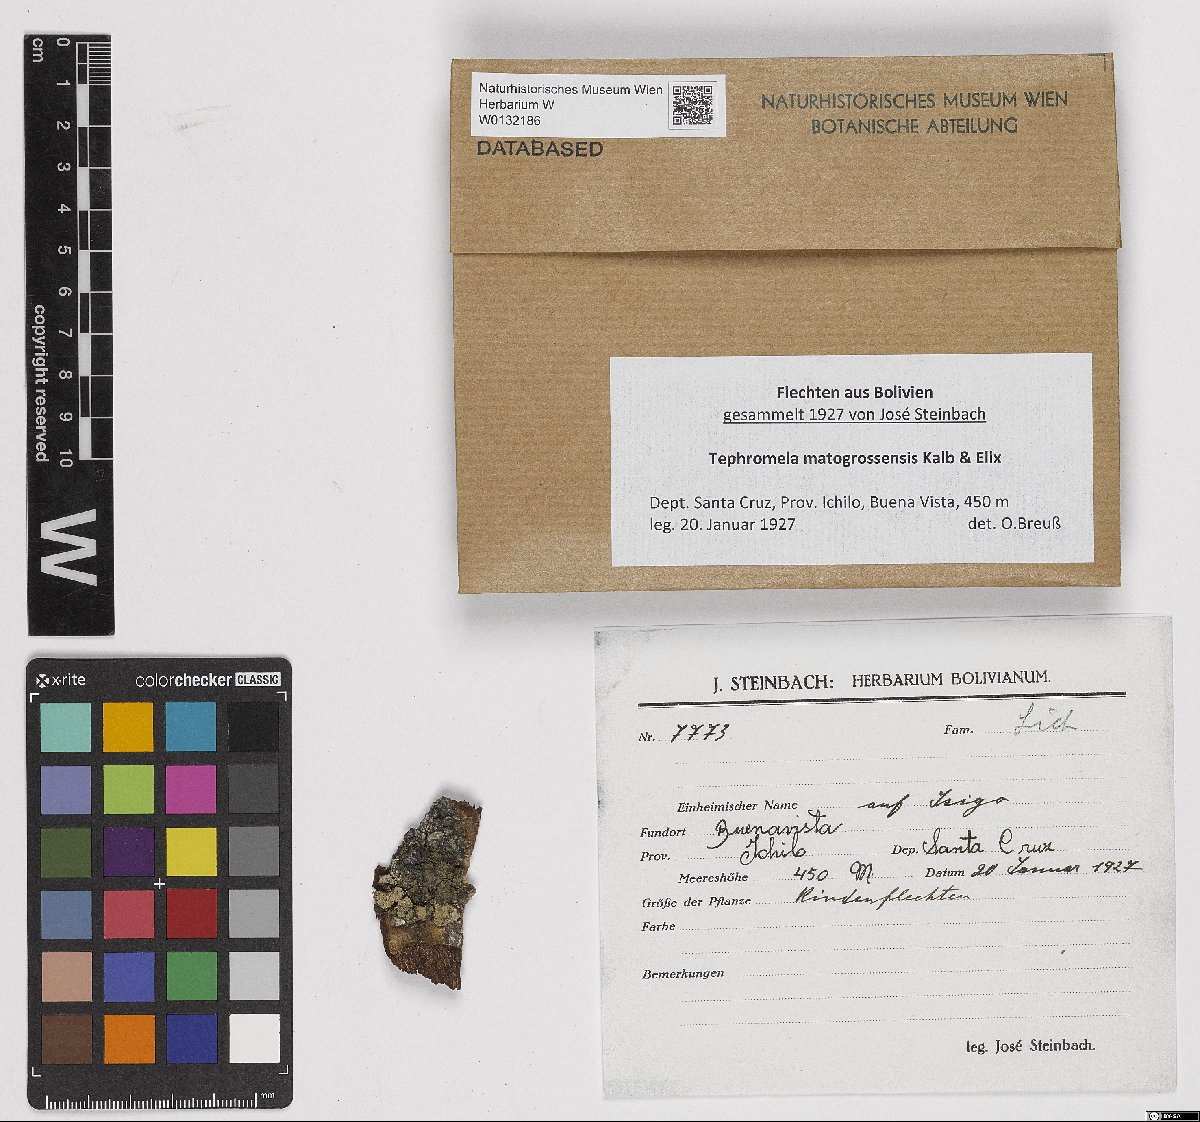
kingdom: Fungi
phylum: Ascomycota
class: Lecanoromycetes
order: Lecanorales
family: Tephromelataceae
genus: Tephromela
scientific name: Tephromela matogrossensis
